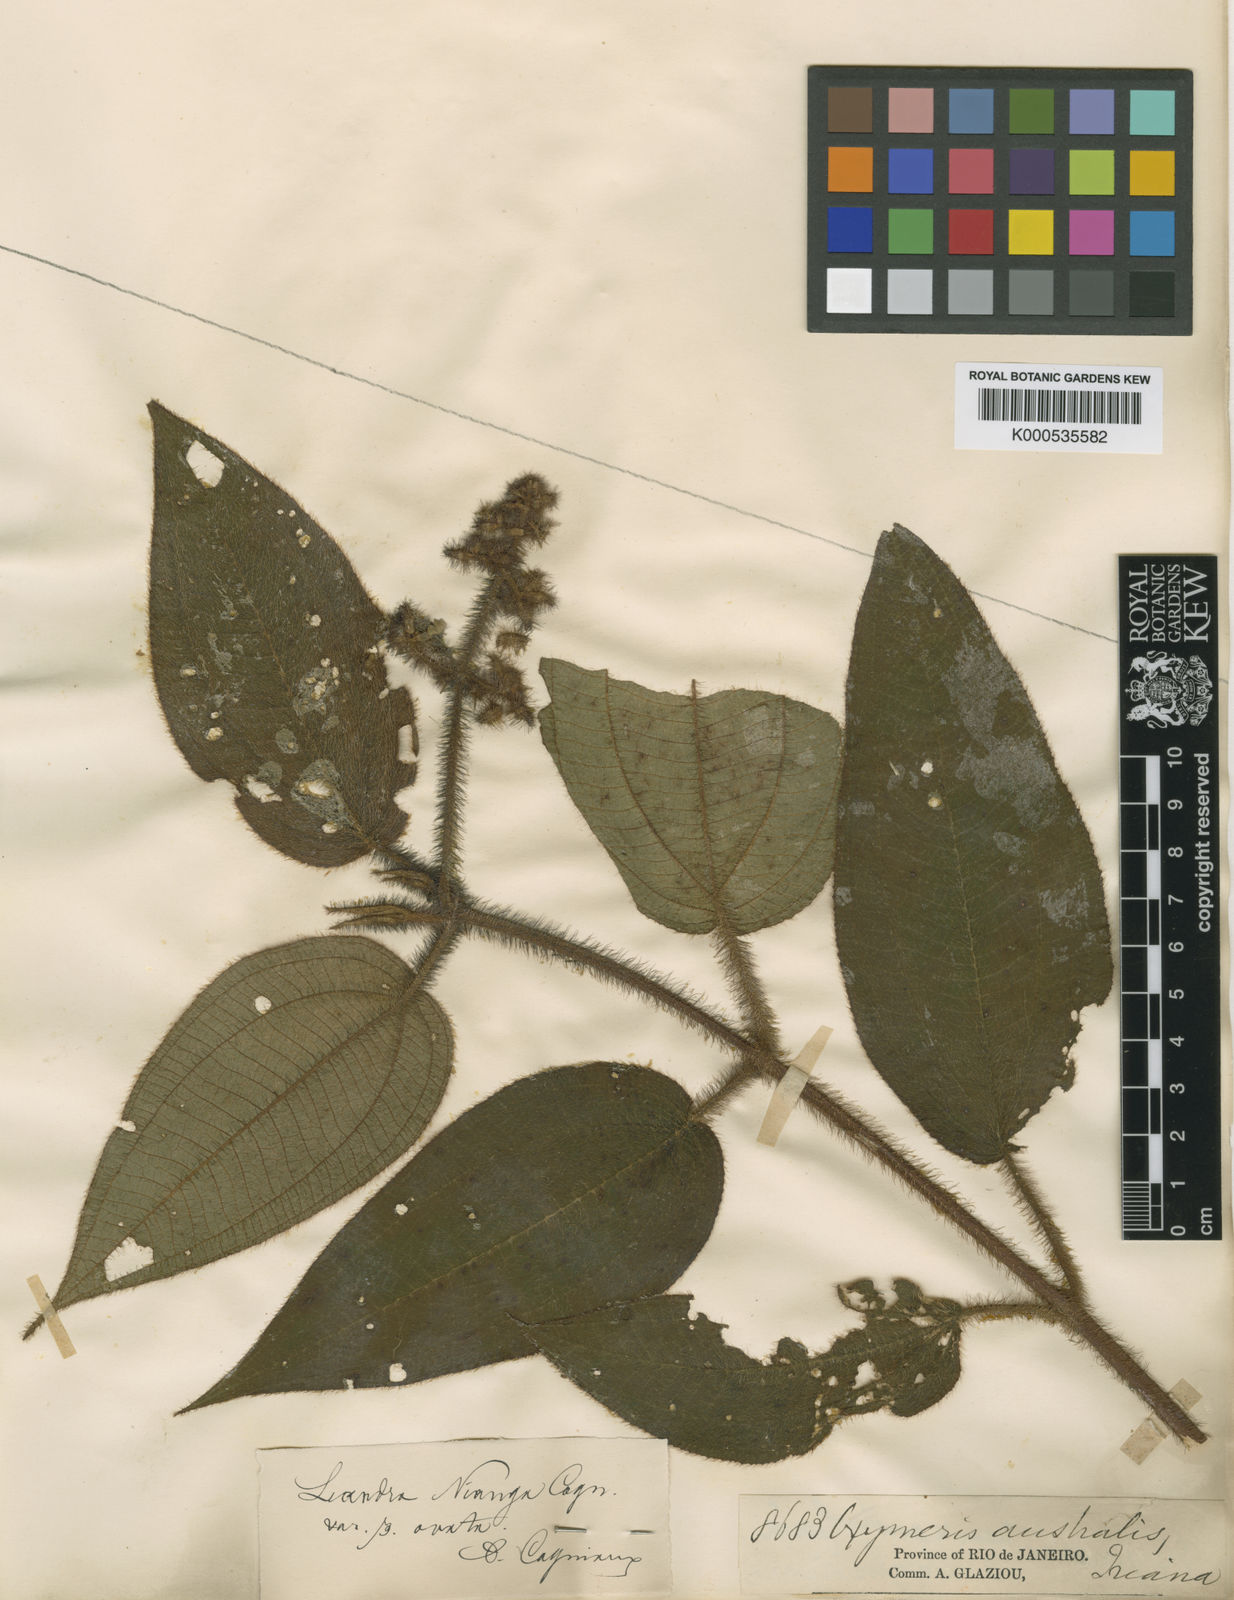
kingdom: Plantae
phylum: Tracheophyta
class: Magnoliopsida
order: Myrtales
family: Melastomataceae
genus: Miconia
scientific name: Miconia nianga
